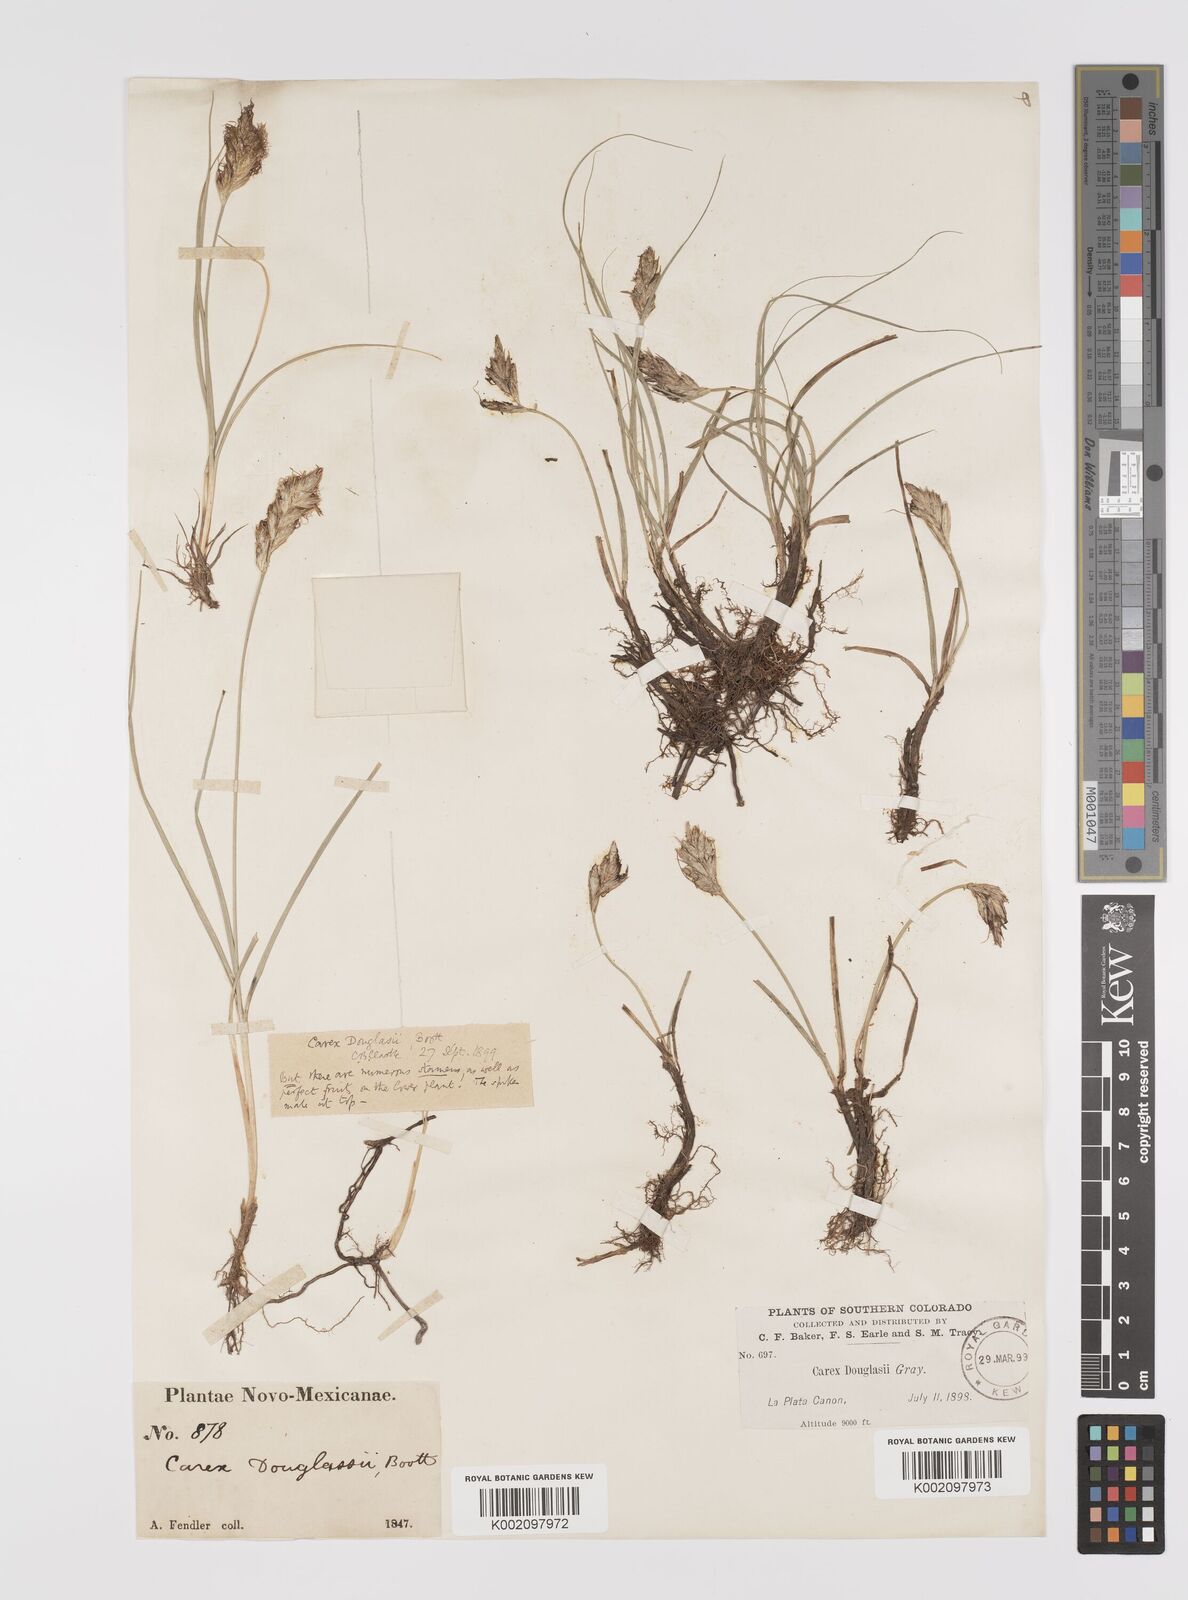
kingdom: Plantae
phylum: Tracheophyta
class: Liliopsida
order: Poales
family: Cyperaceae
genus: Carex
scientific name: Carex douglasii
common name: Douglas' sedge
